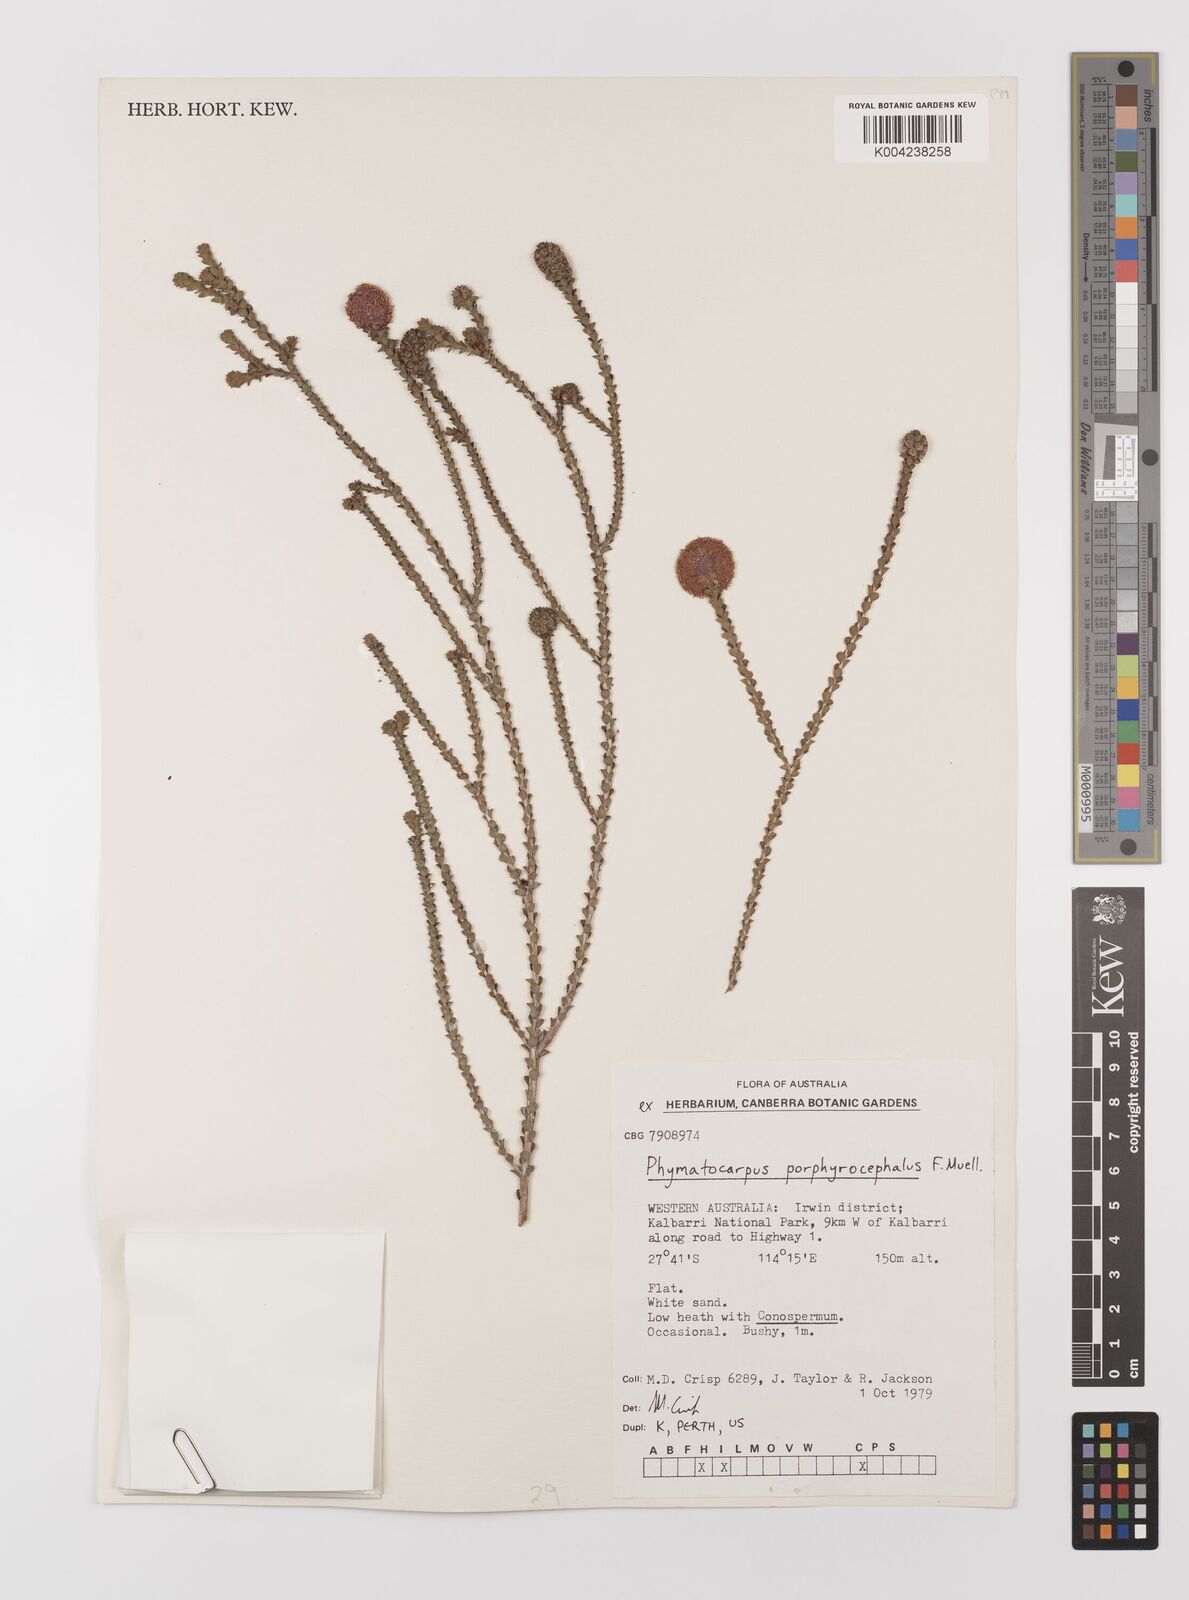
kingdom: Plantae
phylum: Tracheophyta
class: Magnoliopsida
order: Myrtales
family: Myrtaceae
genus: Melaleuca
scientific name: Melaleuca porphyrocephala
